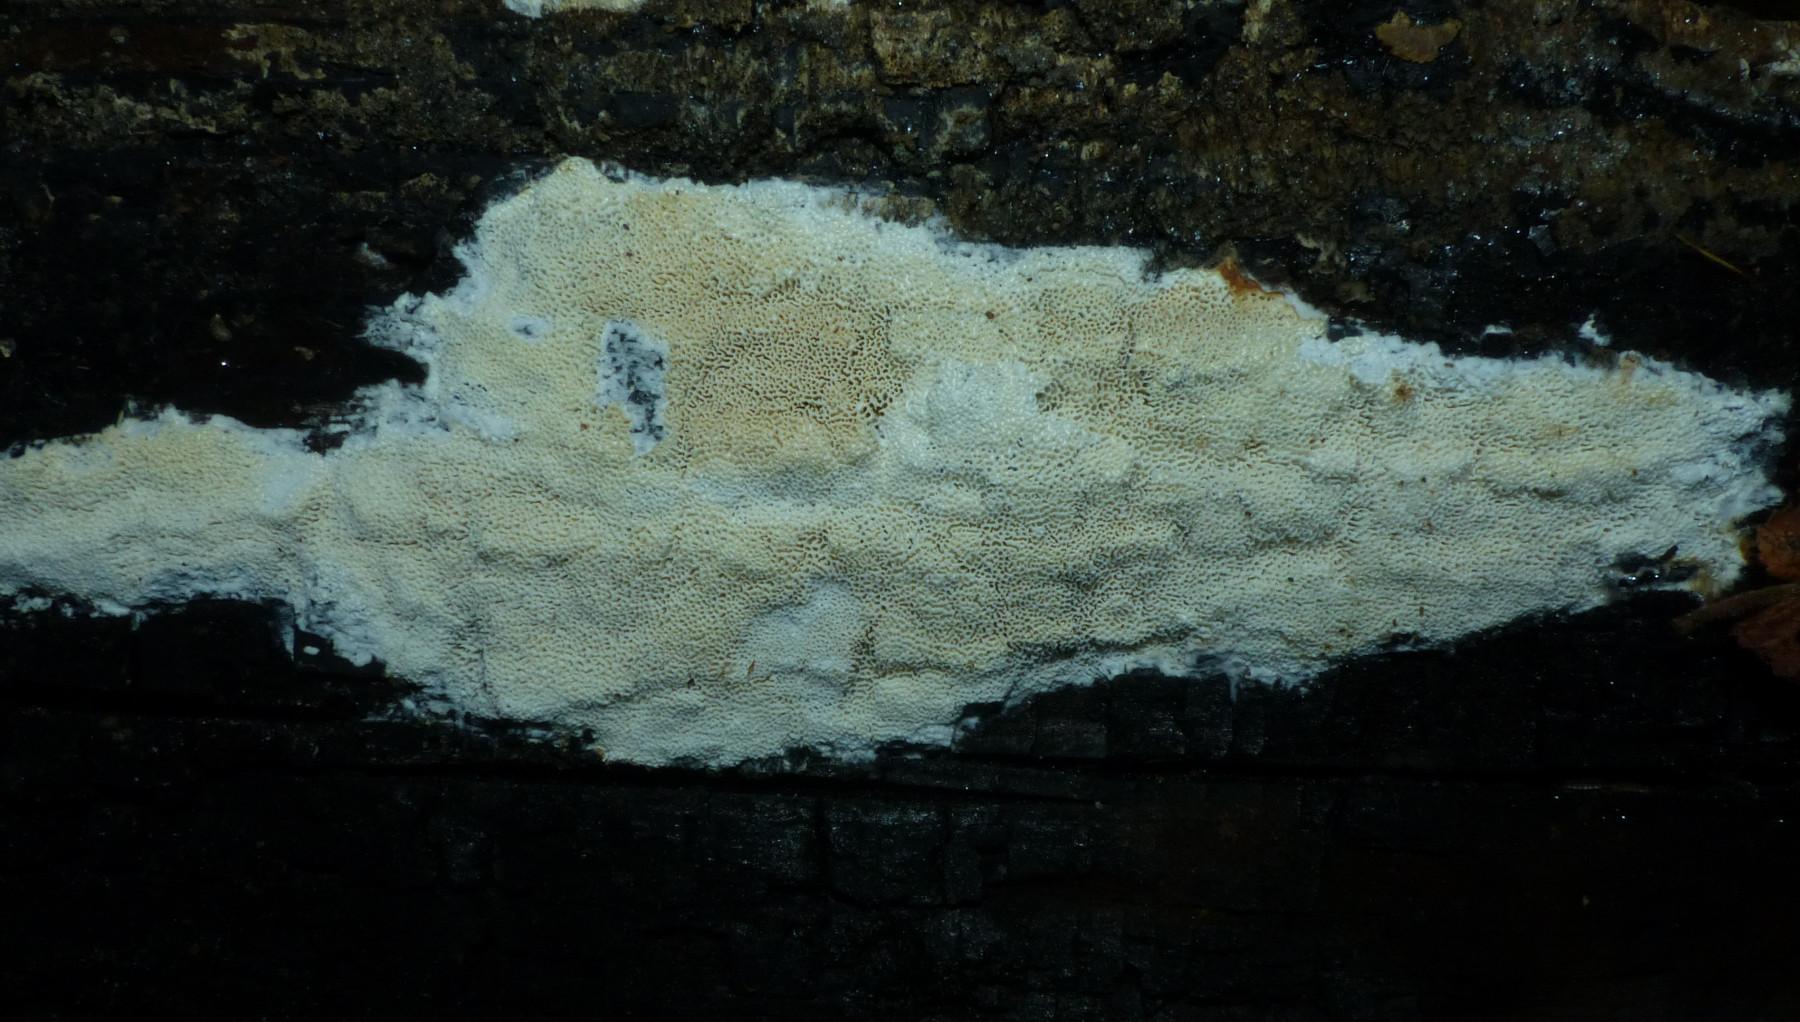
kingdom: Fungi
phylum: Basidiomycota
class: Agaricomycetes
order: Polyporales
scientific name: Polyporales
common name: poresvampordenen
